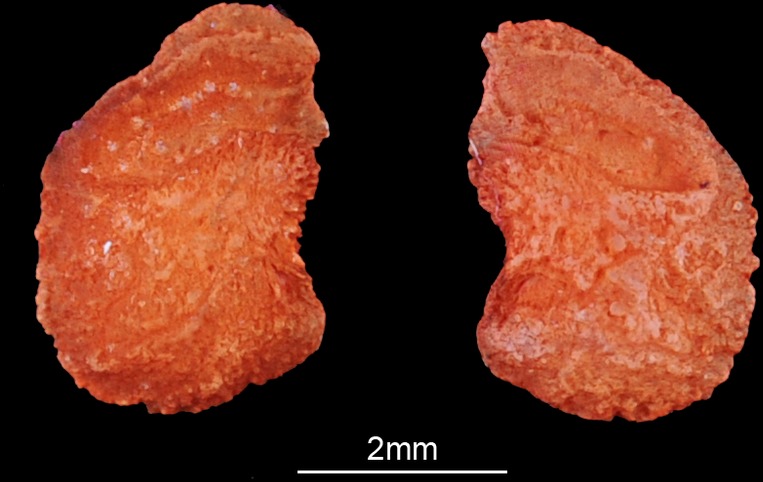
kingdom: Animalia
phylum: Chordata
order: Siluriformes
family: Claroteidae
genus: Chrysichthys
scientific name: Chrysichthys nigrodigitatus
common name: Bagrid catfish
